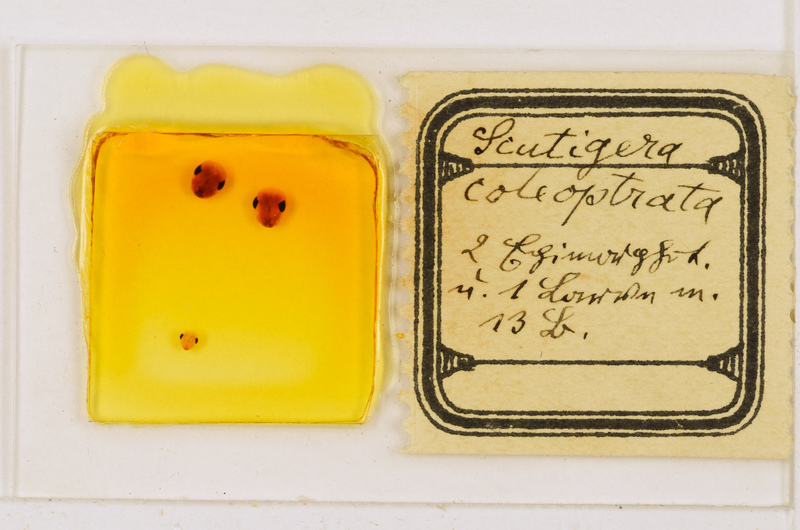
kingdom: Animalia
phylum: Arthropoda
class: Chilopoda
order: Scutigeromorpha
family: Scutigeridae
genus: Scutigera
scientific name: Scutigera coleoptrata
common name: House centipede
